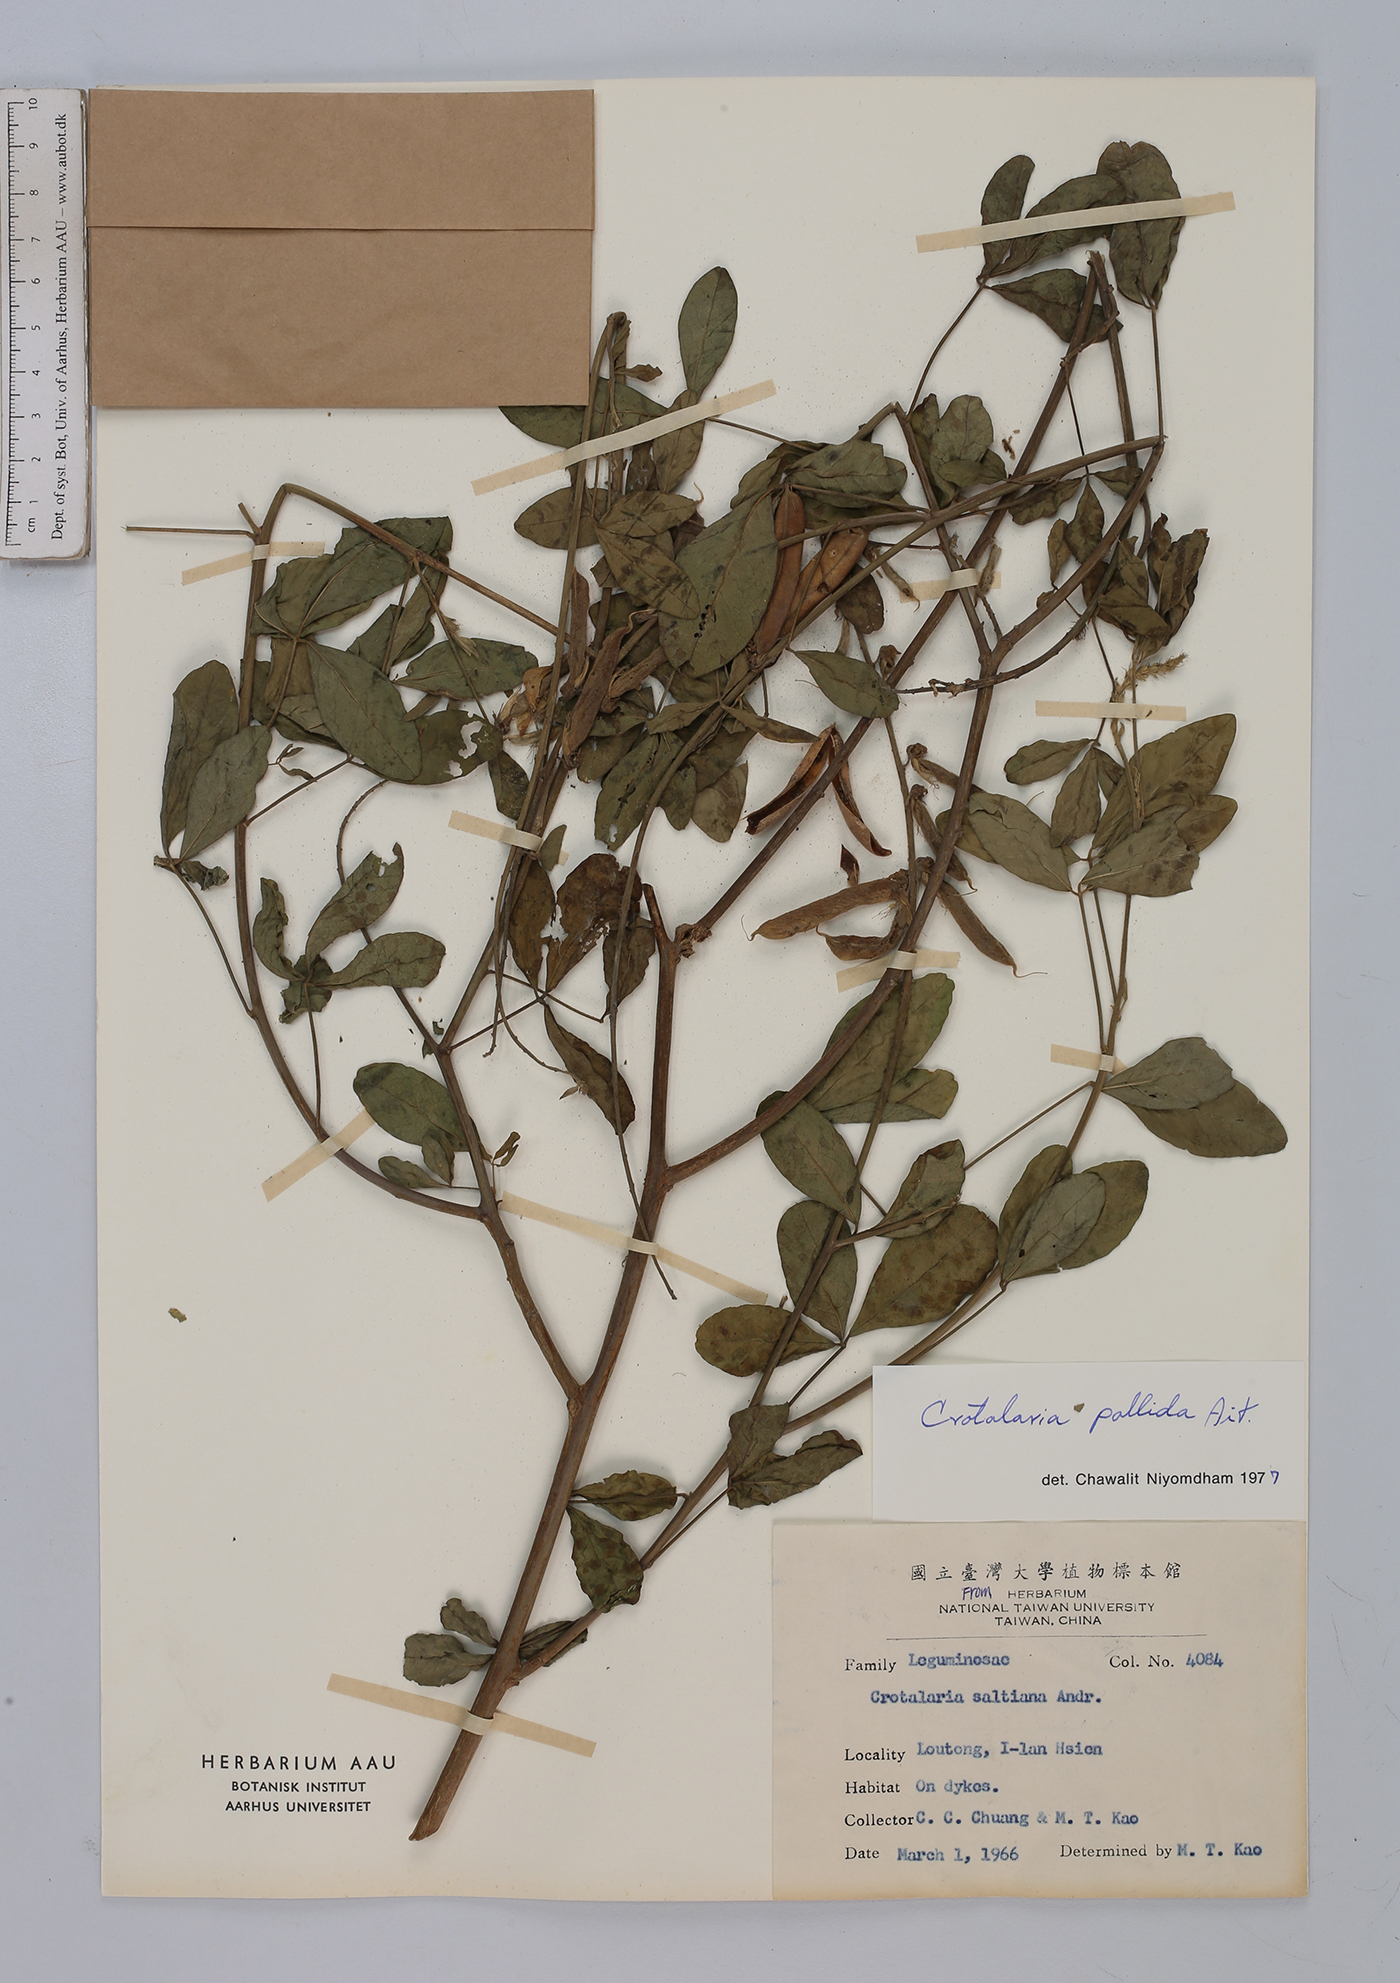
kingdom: Plantae
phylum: Tracheophyta
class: Magnoliopsida
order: Fabales
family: Fabaceae
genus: Crotalaria
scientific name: Crotalaria pallida
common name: Smooth rattlebox
